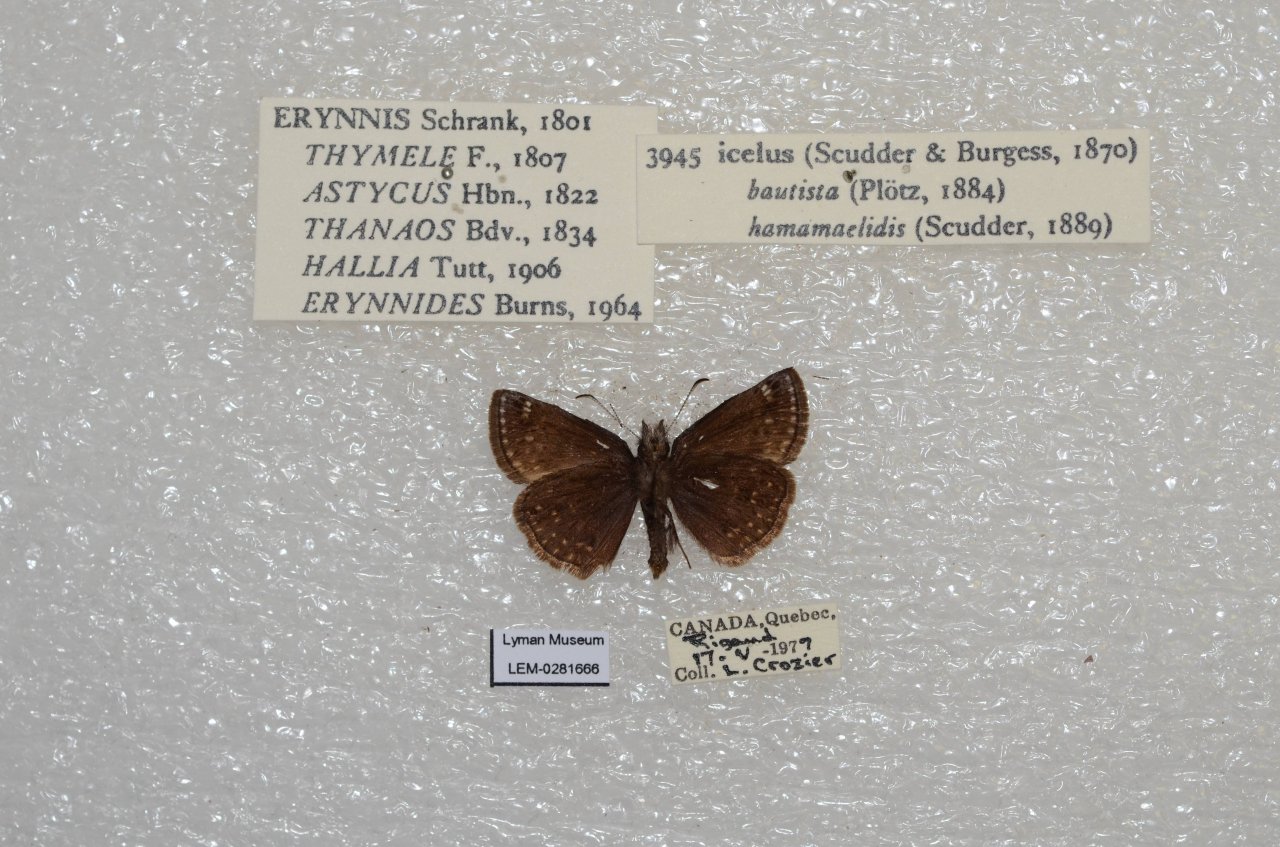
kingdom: Animalia
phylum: Arthropoda
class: Insecta
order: Lepidoptera
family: Hesperiidae
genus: Erynnis
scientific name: Erynnis icelus
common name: Dreamy Duskywing
